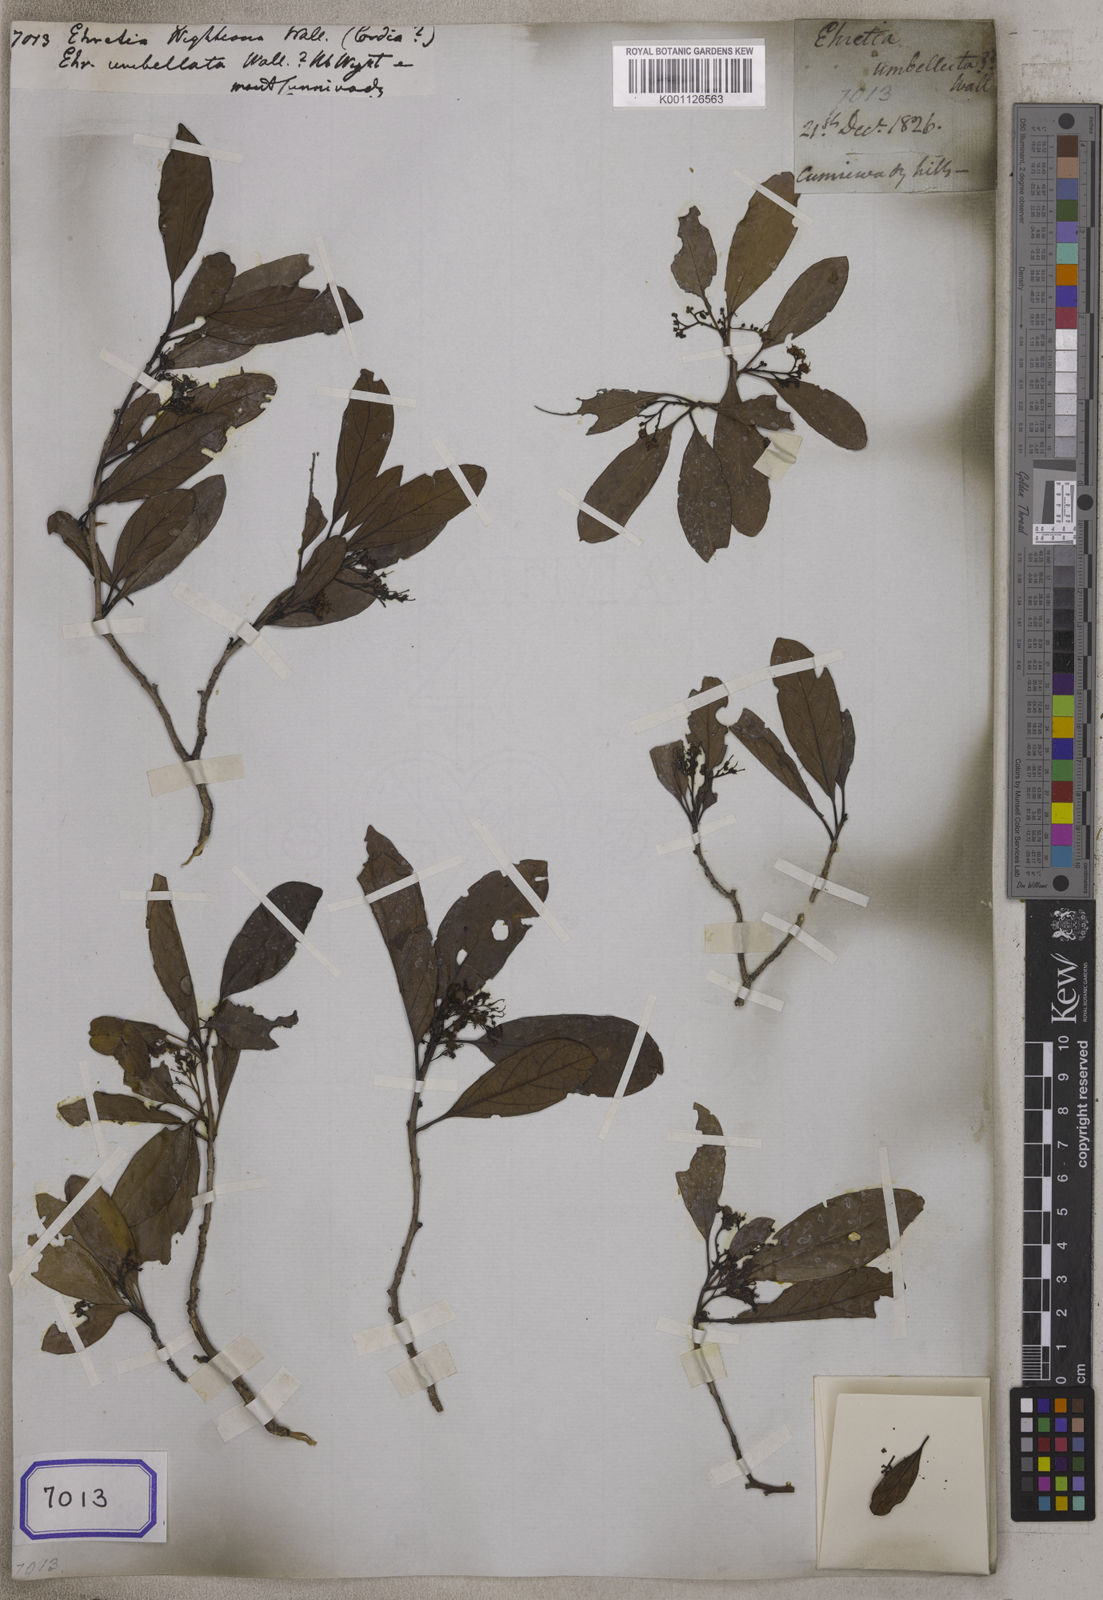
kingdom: Plantae
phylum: Tracheophyta
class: Magnoliopsida
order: Boraginales
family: Ehretiaceae
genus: Ehretia
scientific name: Ehretia
